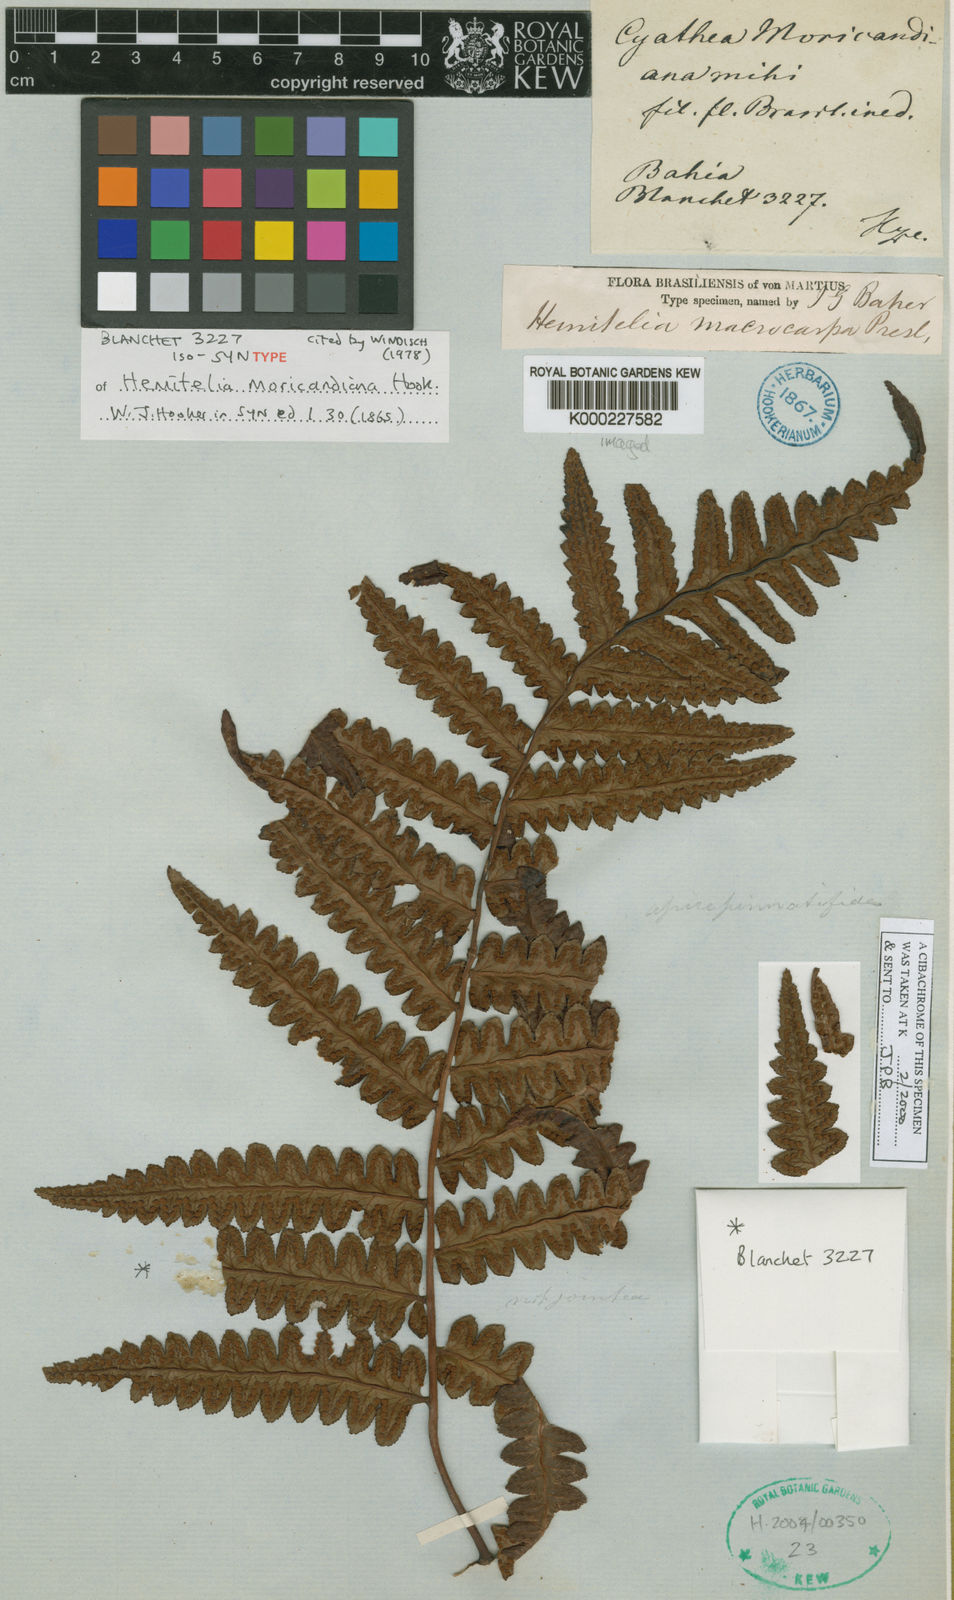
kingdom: Plantae
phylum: Tracheophyta
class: Polypodiopsida
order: Cyatheales
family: Cyatheaceae
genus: Cyathea
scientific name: Cyathea macrocarpa
